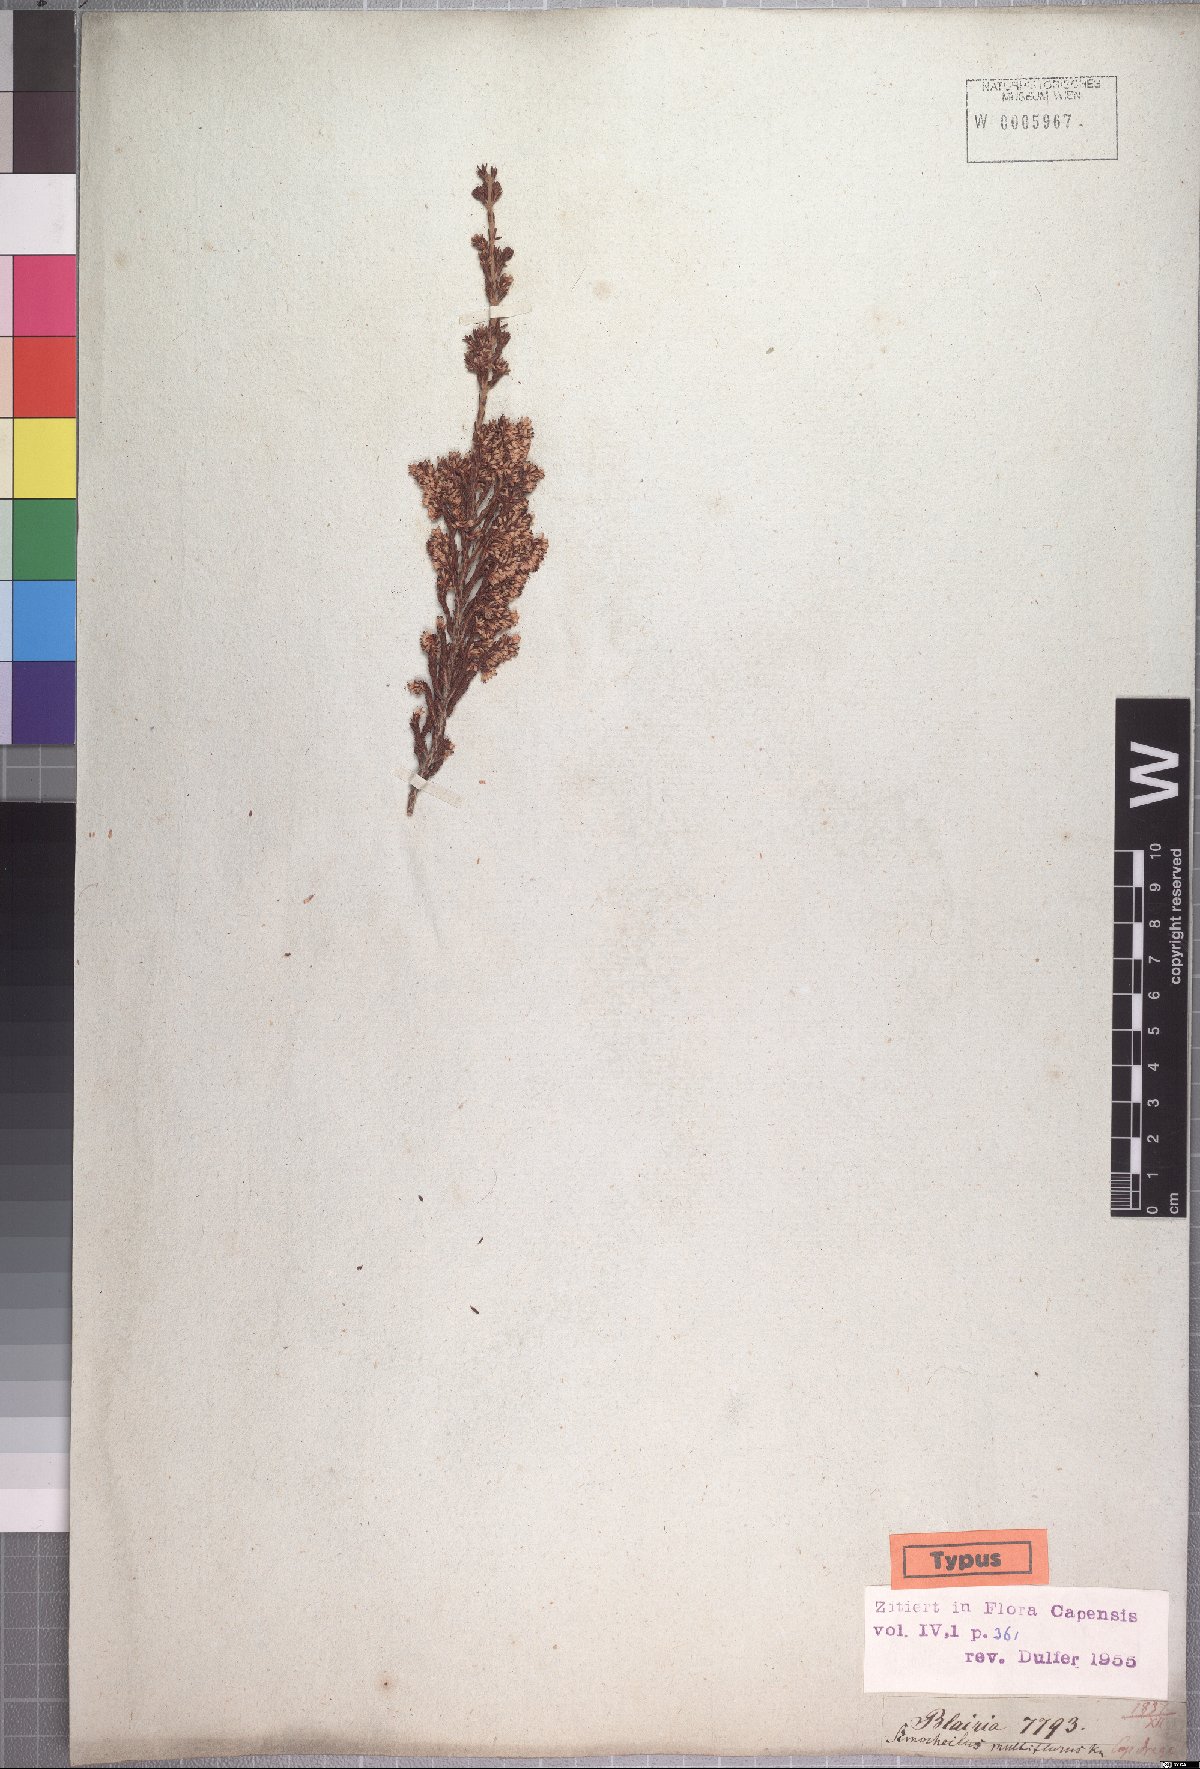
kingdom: Plantae
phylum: Tracheophyta
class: Magnoliopsida
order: Ericales
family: Ericaceae
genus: Erica
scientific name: Erica uberiflora
